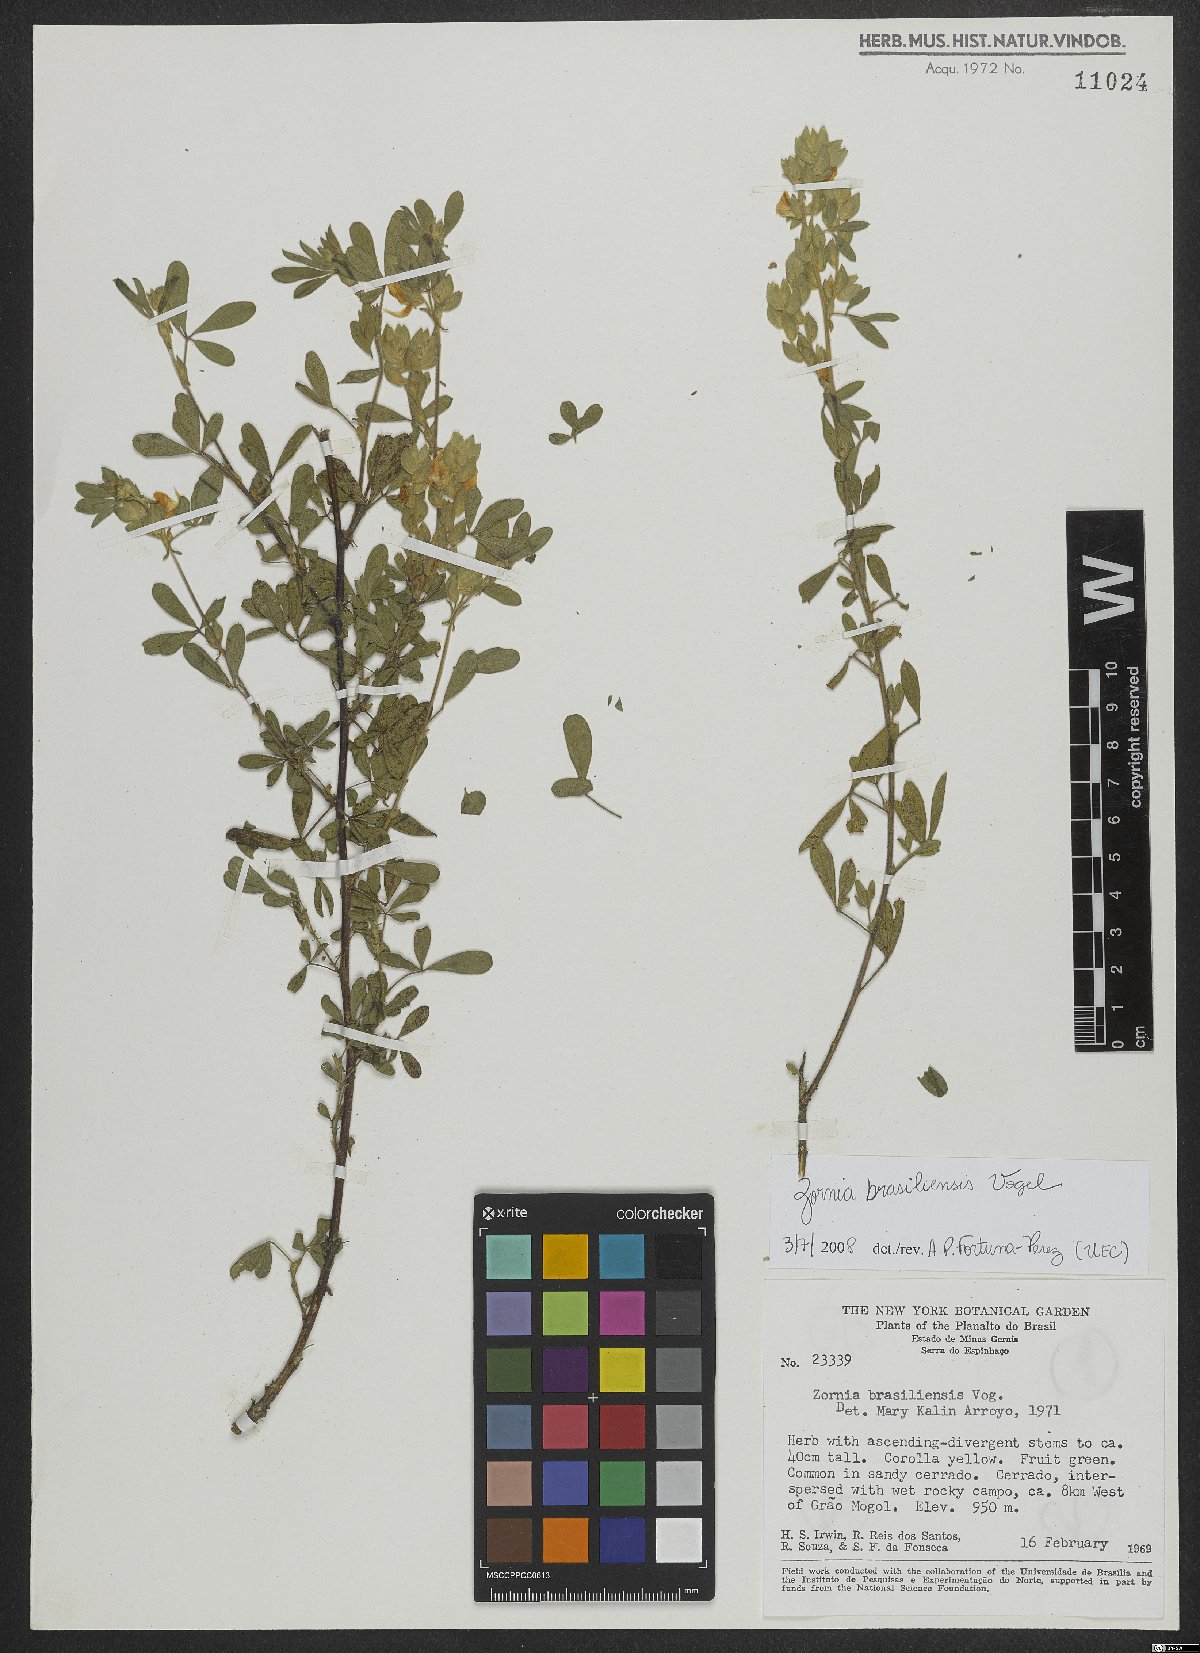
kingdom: Plantae
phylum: Tracheophyta
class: Magnoliopsida
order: Fabales
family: Fabaceae
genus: Zornia
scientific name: Zornia brasiliensis
